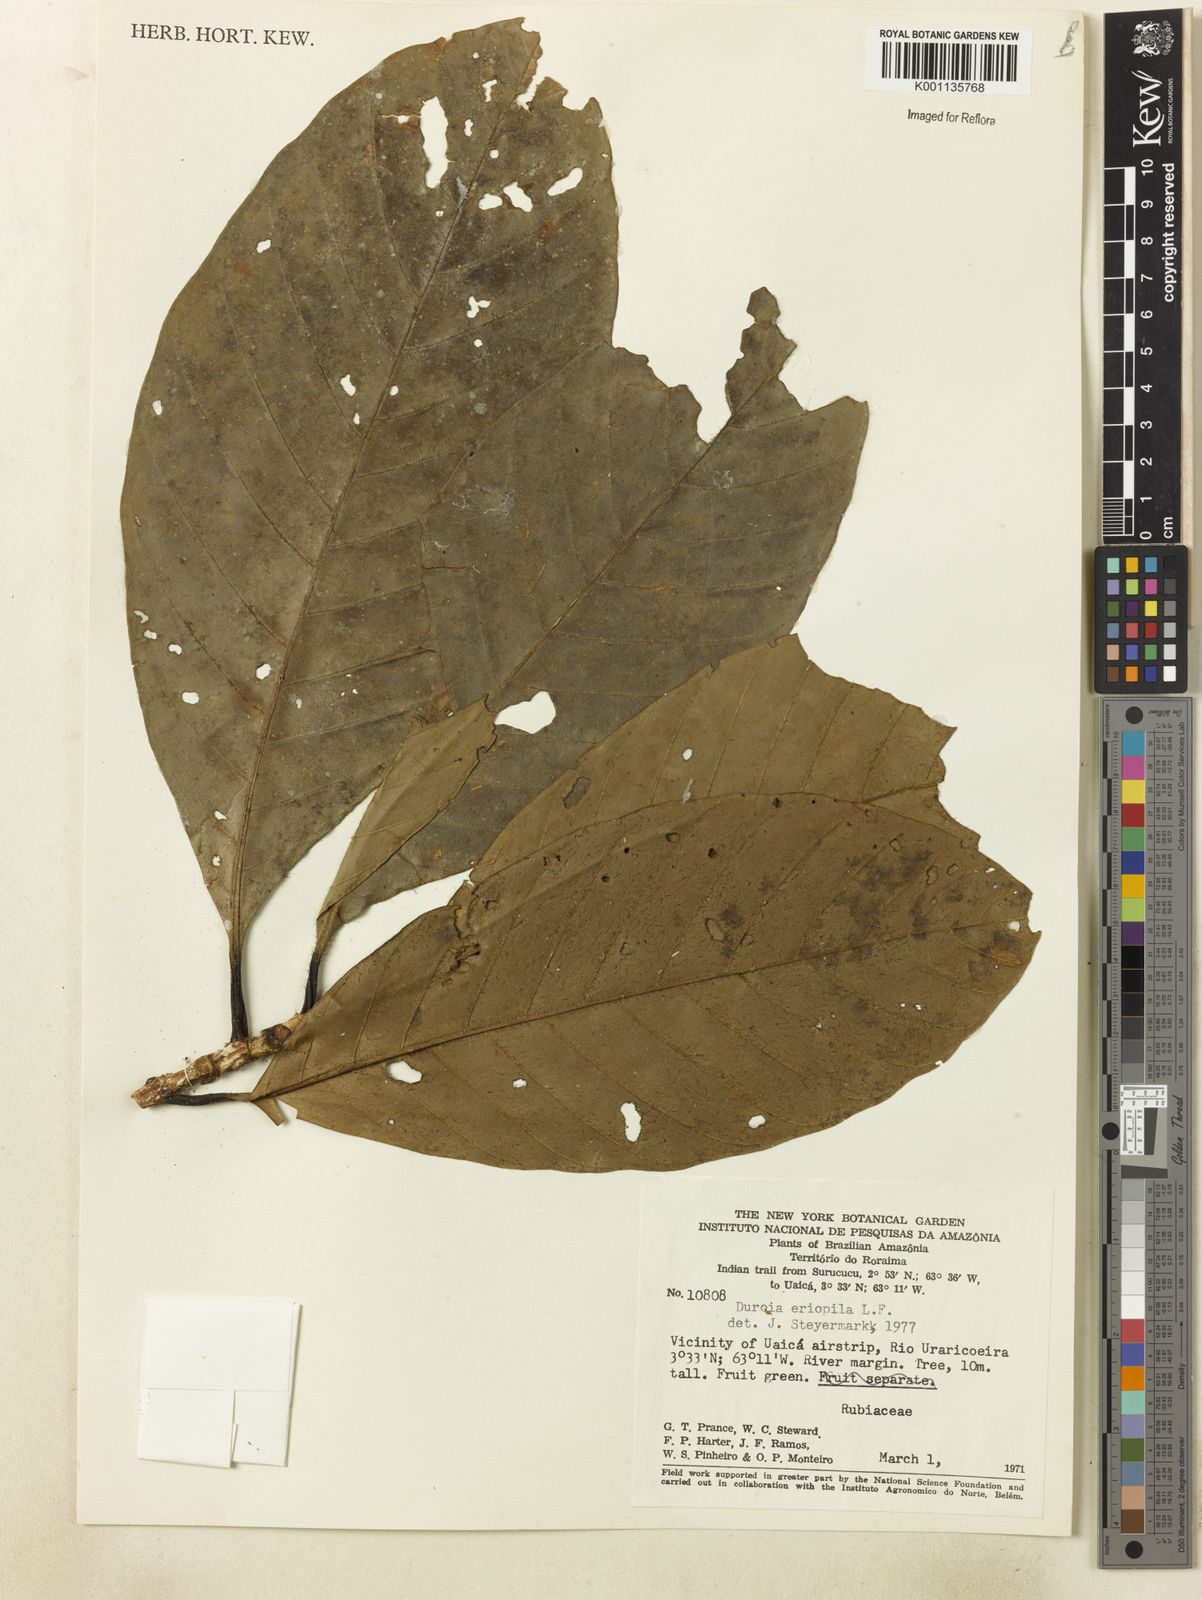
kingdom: Plantae
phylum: Tracheophyta
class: Magnoliopsida
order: Gentianales
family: Rubiaceae
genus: Duroia
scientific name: Duroia eriopila
